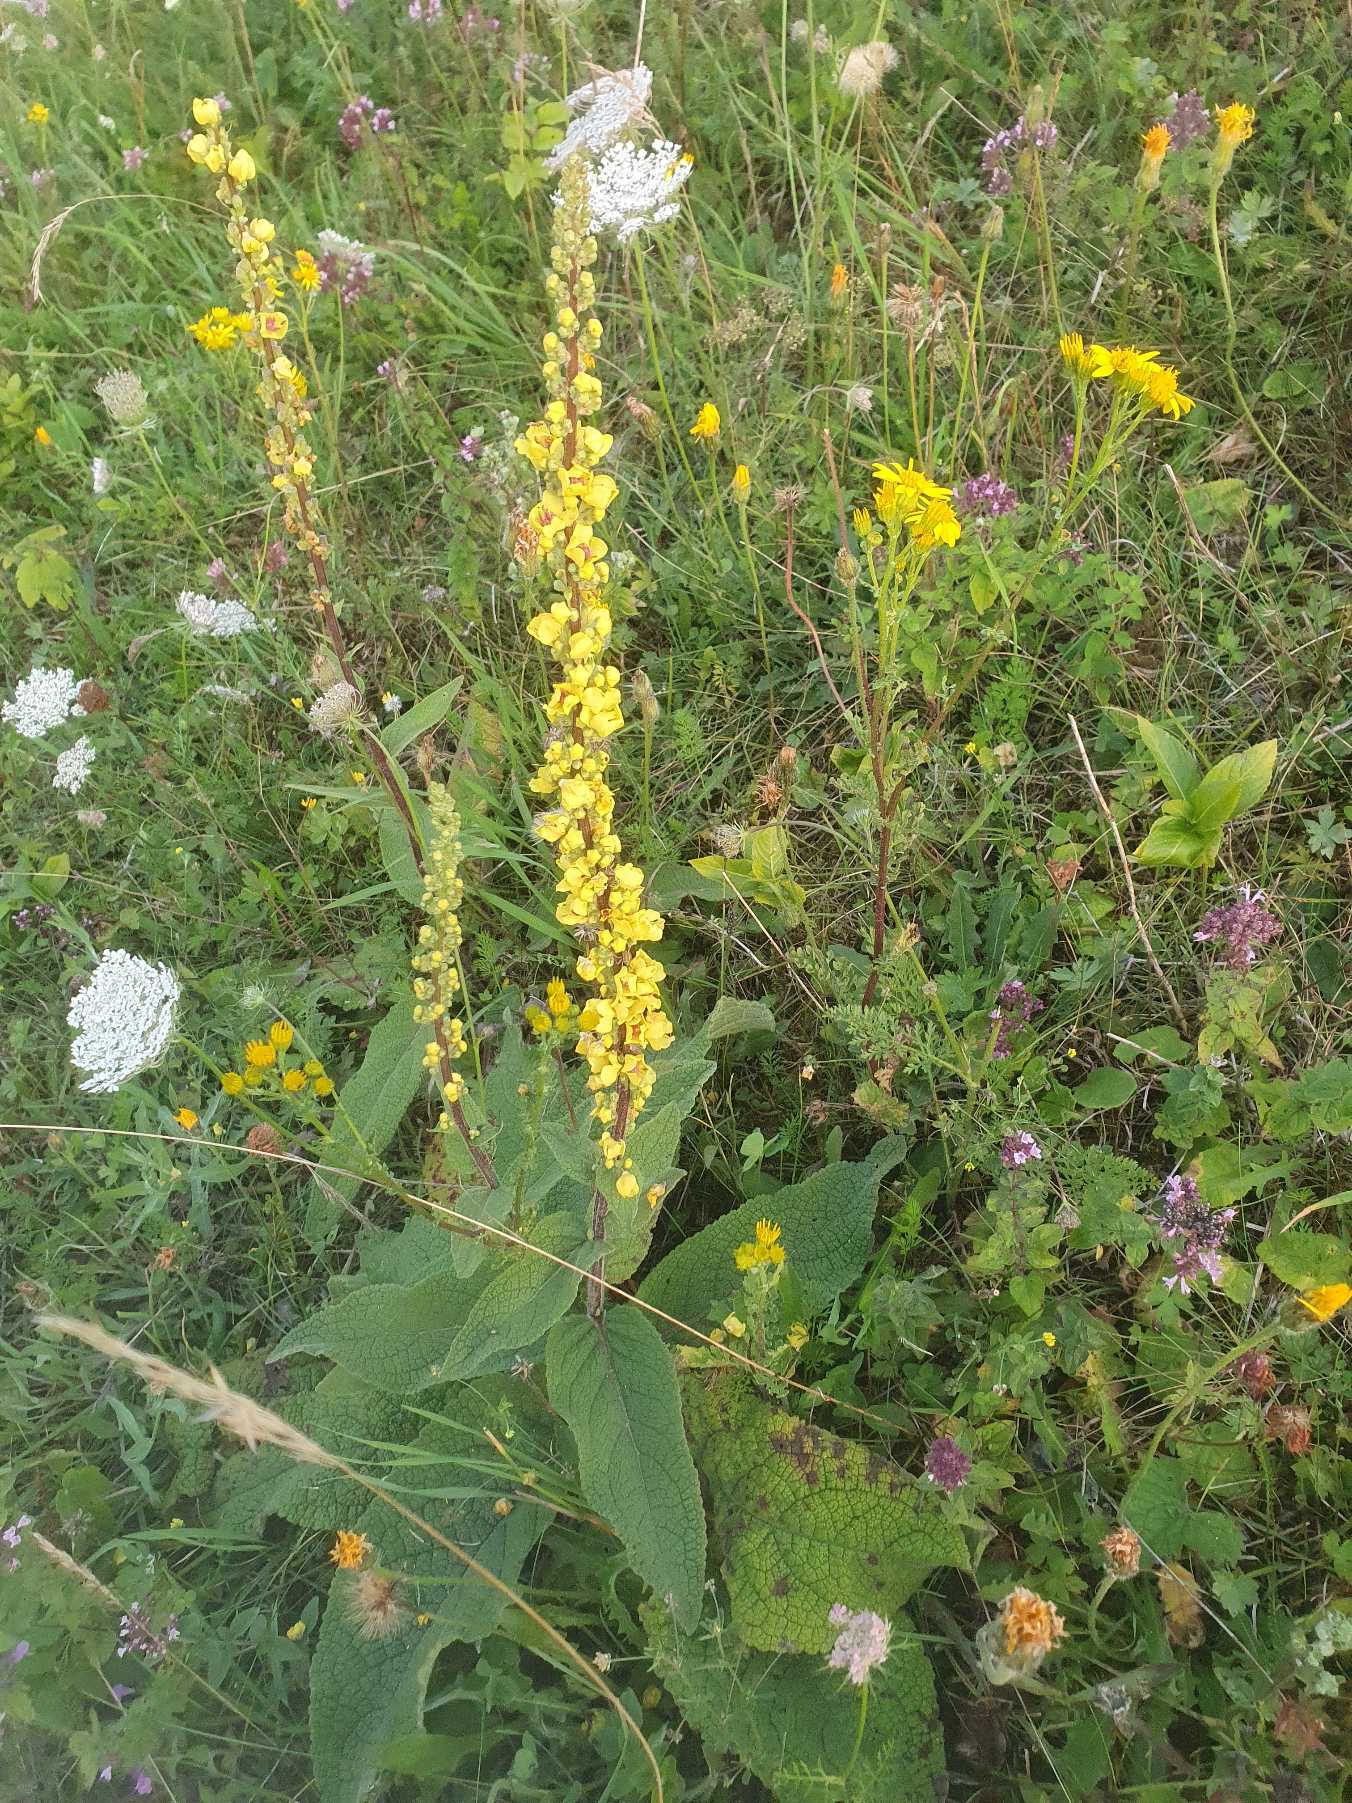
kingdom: Plantae
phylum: Tracheophyta
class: Magnoliopsida
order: Lamiales
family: Scrophulariaceae
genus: Verbascum
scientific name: Verbascum nigrum
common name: Mørk kongelys
